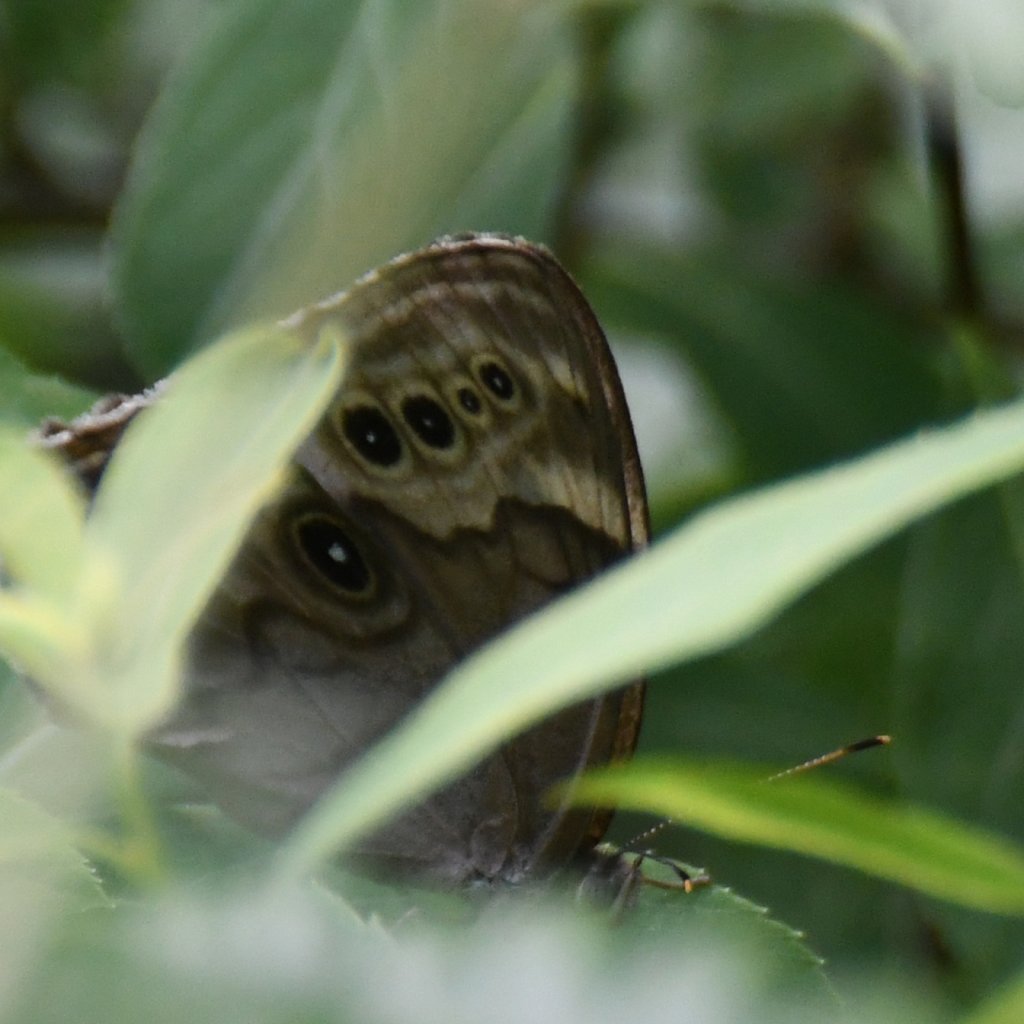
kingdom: Animalia
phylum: Arthropoda
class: Insecta
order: Lepidoptera
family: Nymphalidae
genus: Lethe
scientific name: Lethe anthedon
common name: Northern Pearly-Eye
